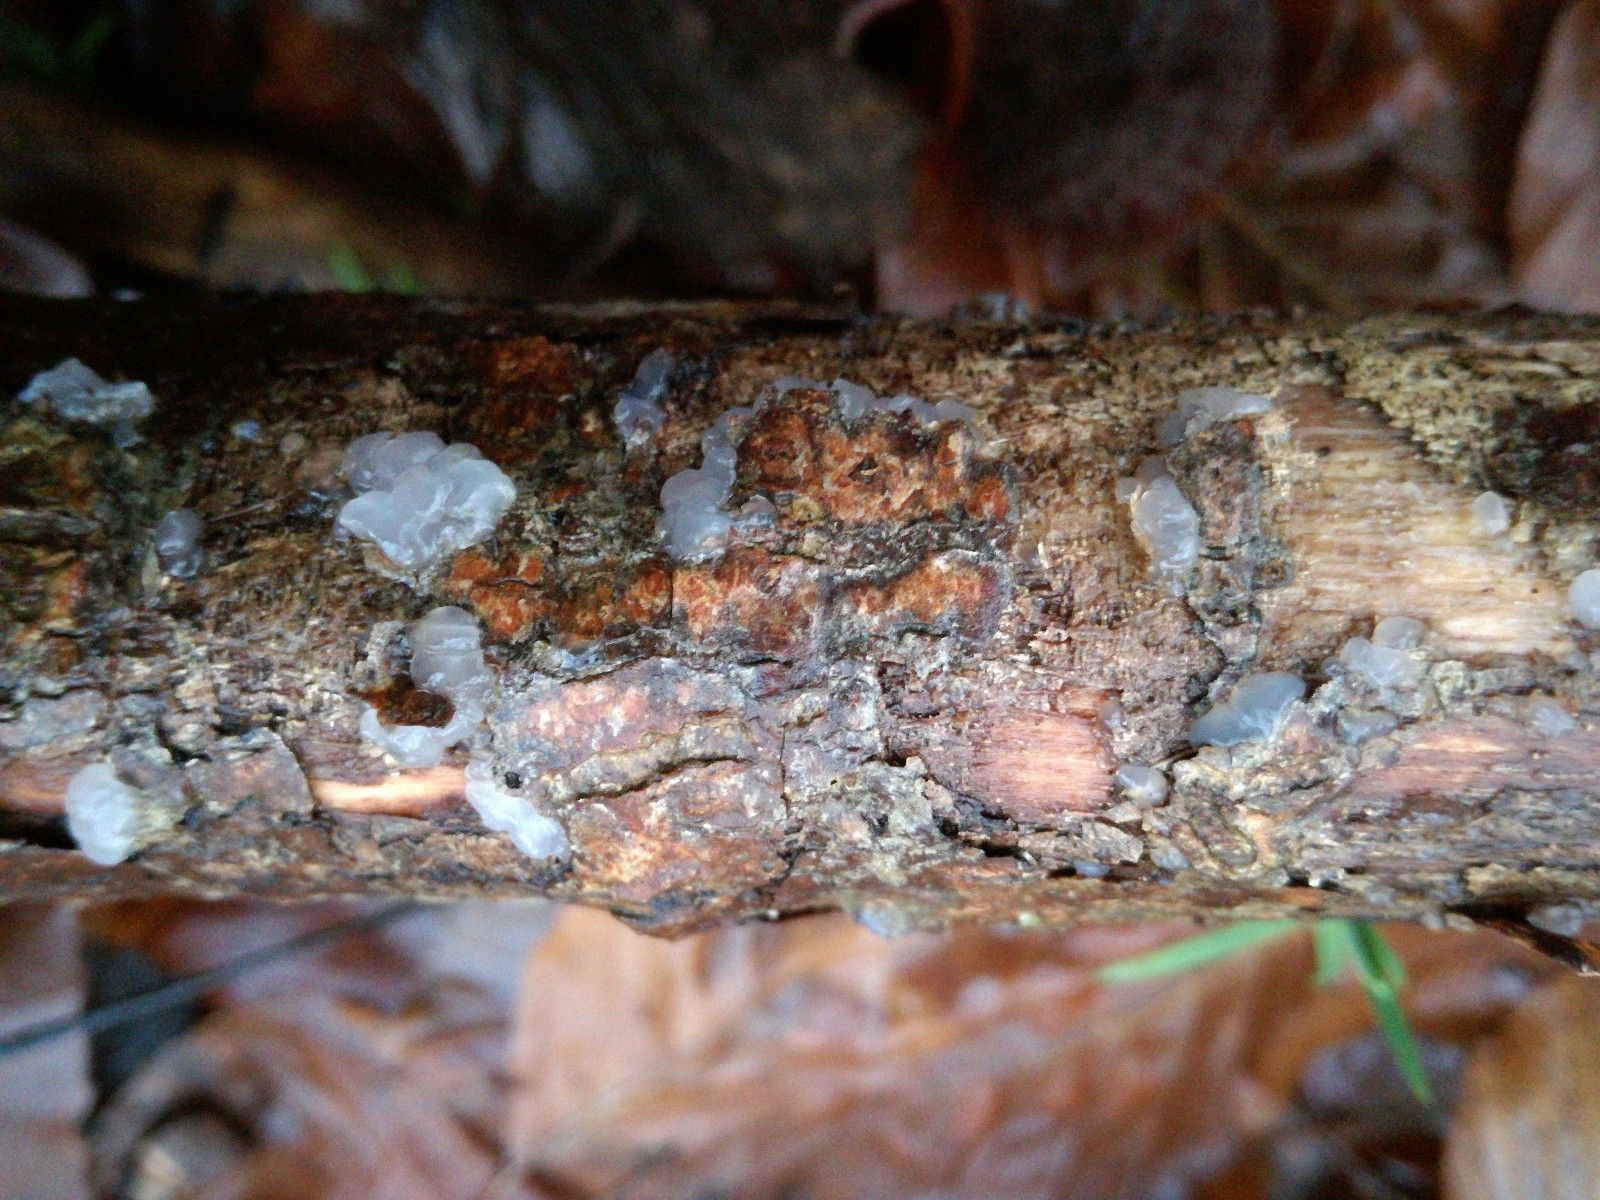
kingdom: Fungi
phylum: Basidiomycota
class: Agaricomycetes
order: Auriculariales
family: Hyaloriaceae
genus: Myxarium
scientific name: Myxarium nucleatum
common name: klar bævretop
